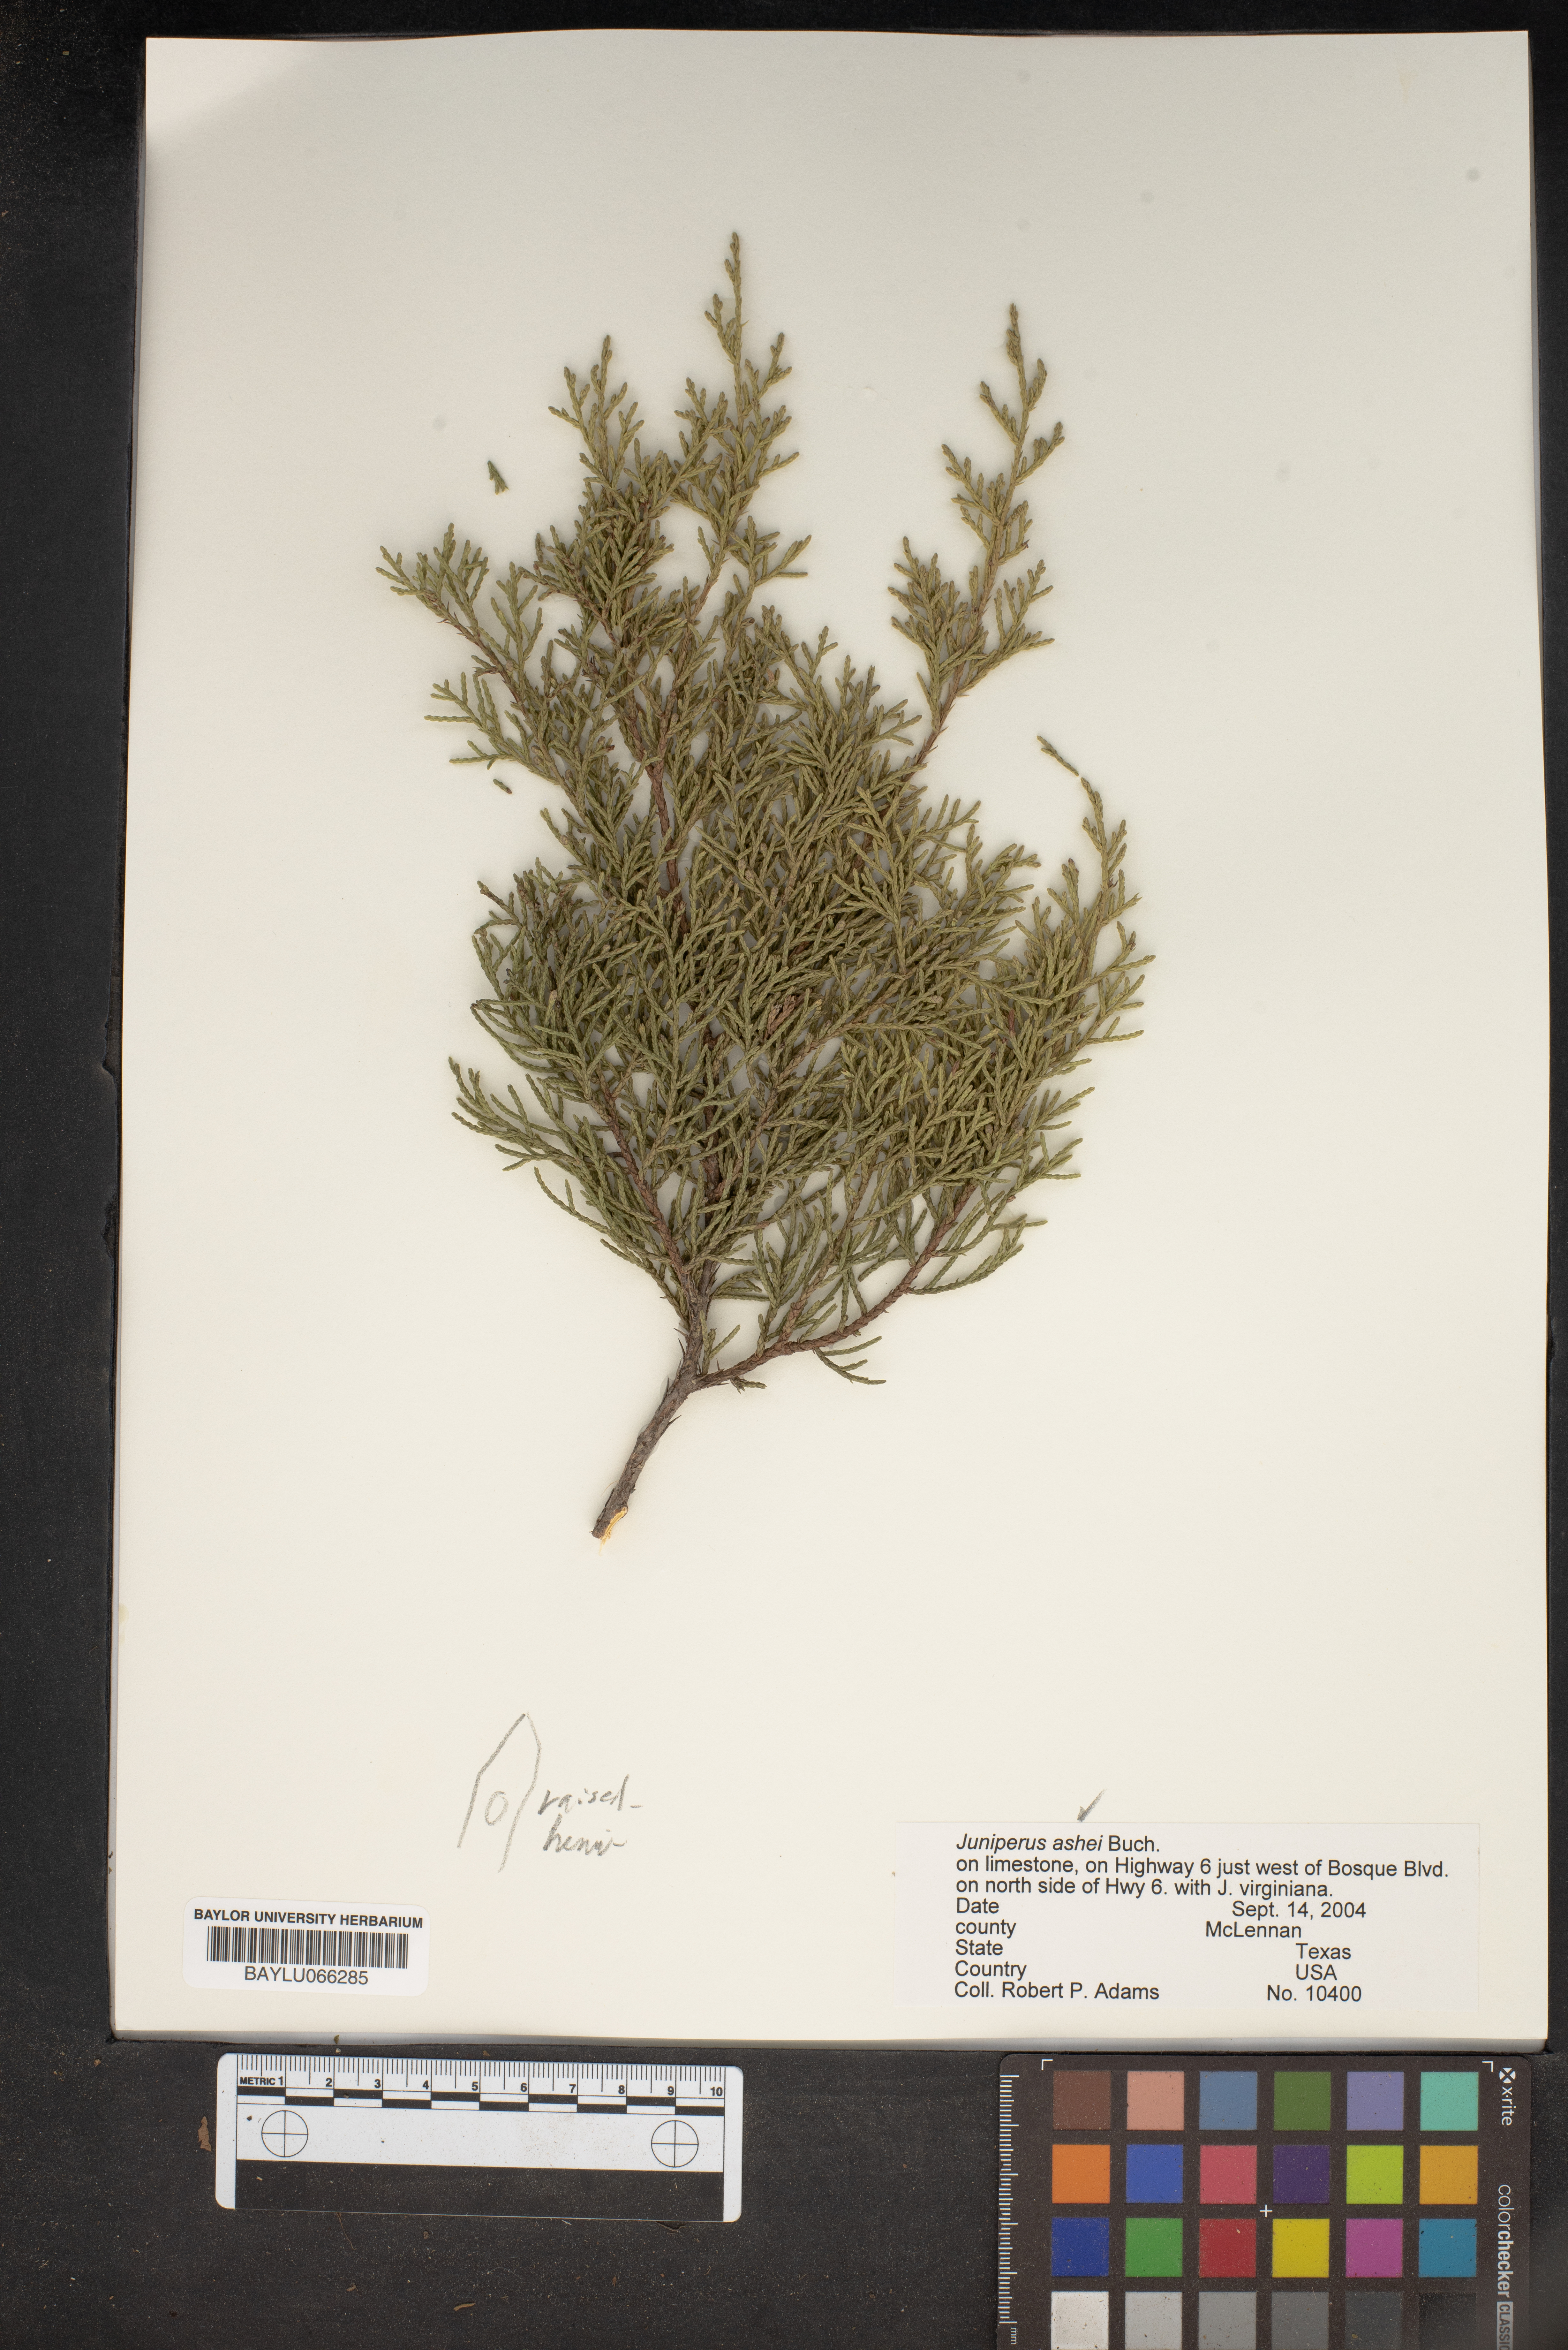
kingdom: Plantae
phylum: Tracheophyta
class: Pinopsida
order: Pinales
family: Cupressaceae
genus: Juniperus
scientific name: Juniperus ashei
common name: Mexican juniper
